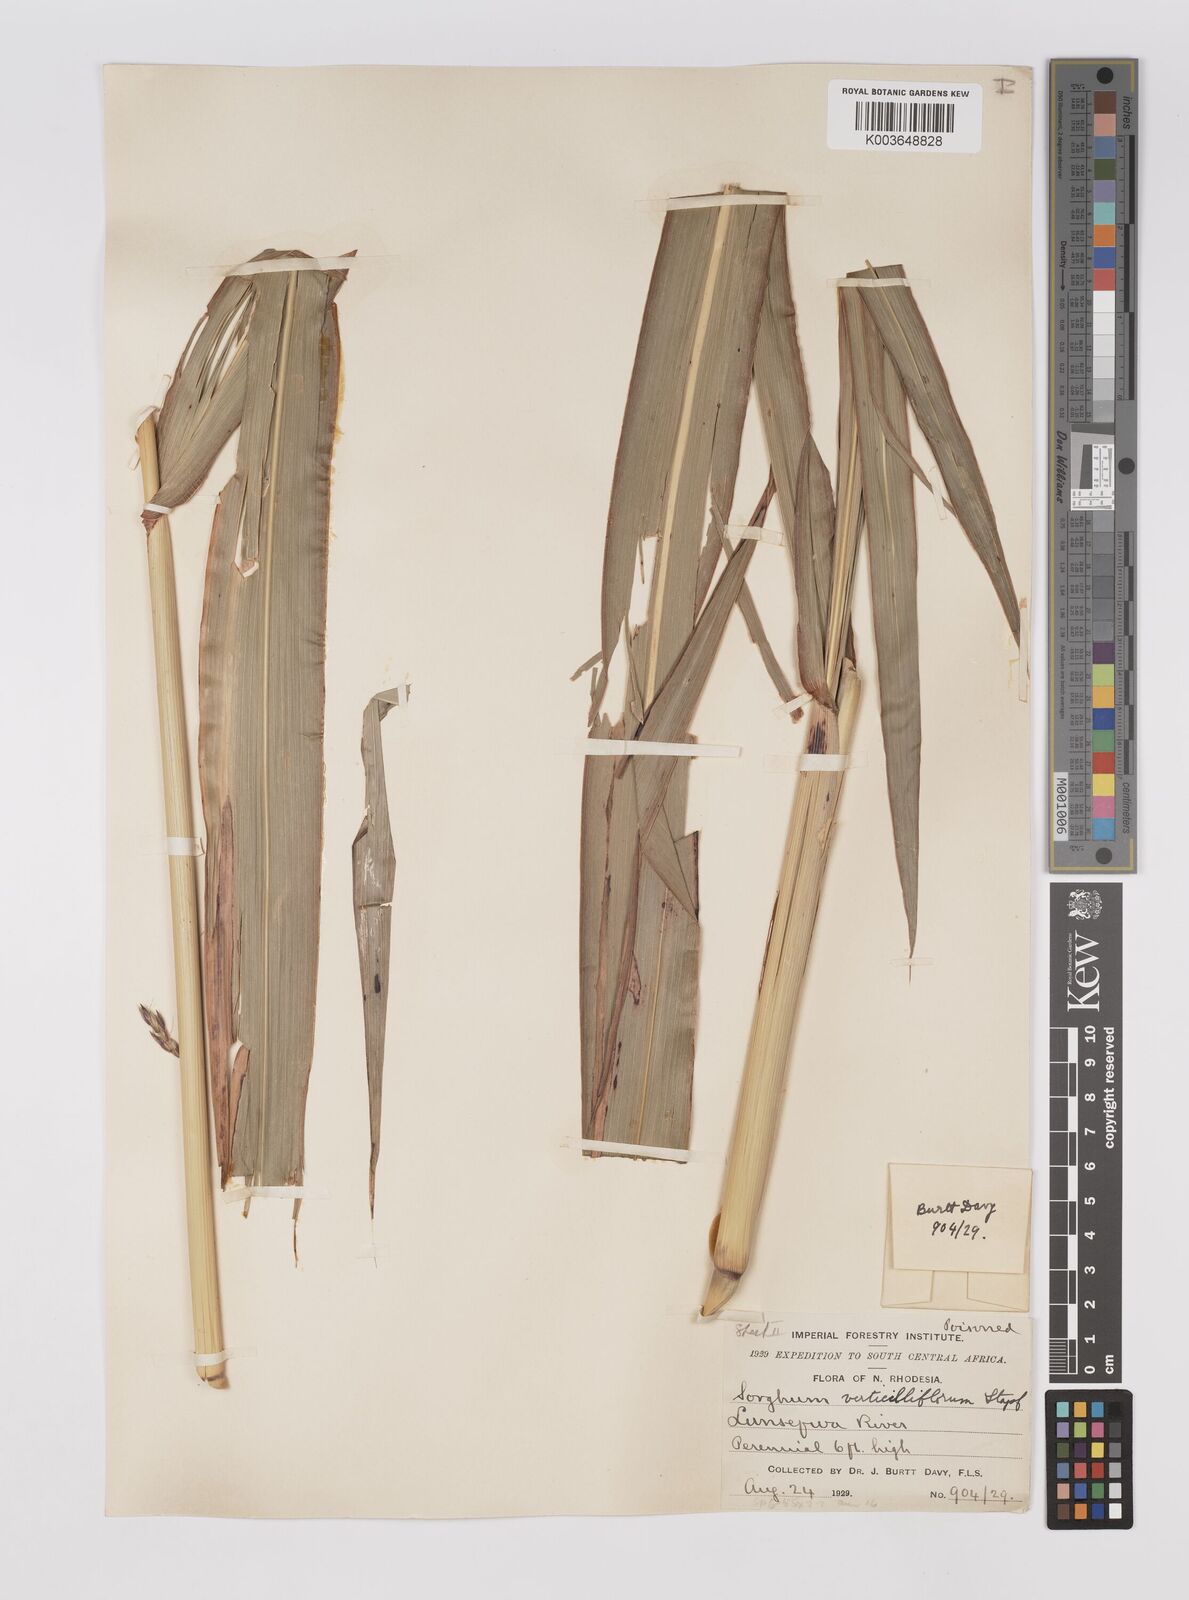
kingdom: Plantae
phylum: Tracheophyta
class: Liliopsida
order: Poales
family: Poaceae
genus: Sorghum
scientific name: Sorghum arundinaceum
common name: Sorghum
